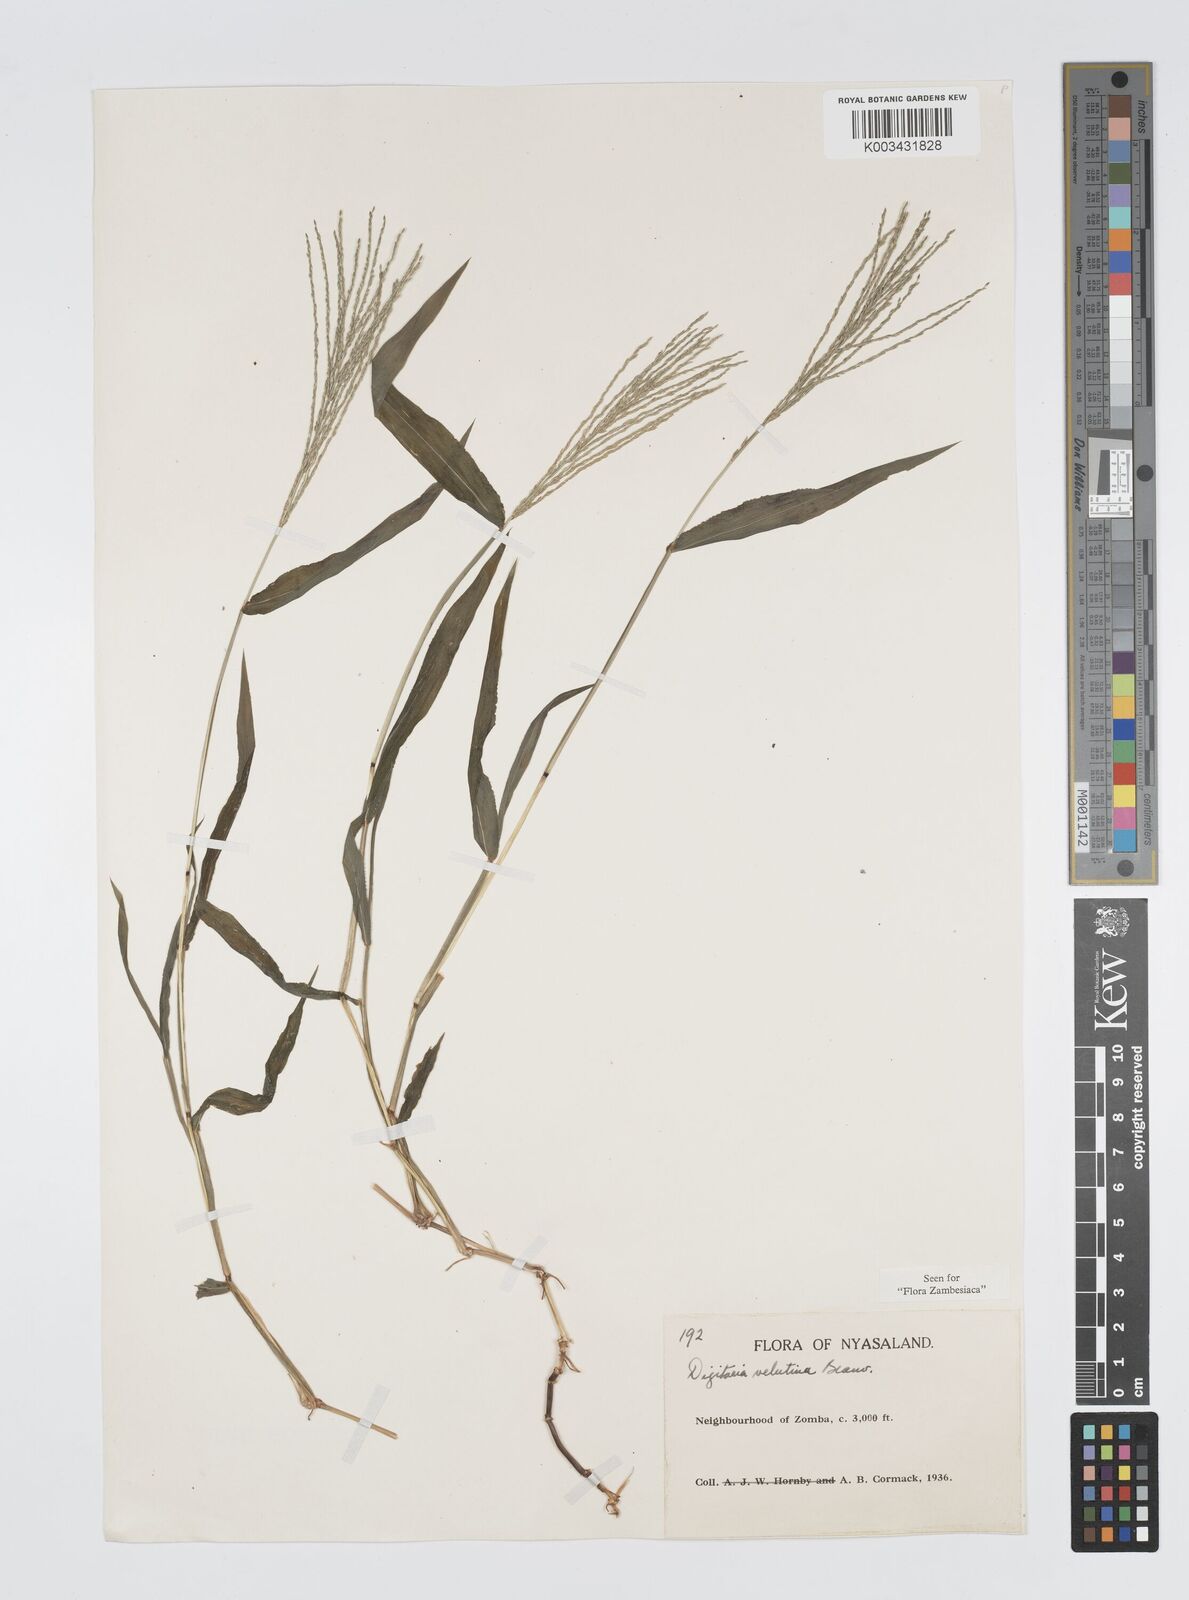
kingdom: Plantae
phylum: Tracheophyta
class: Liliopsida
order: Poales
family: Poaceae
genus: Digitaria
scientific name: Digitaria velutina
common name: Long-plume finger grass
